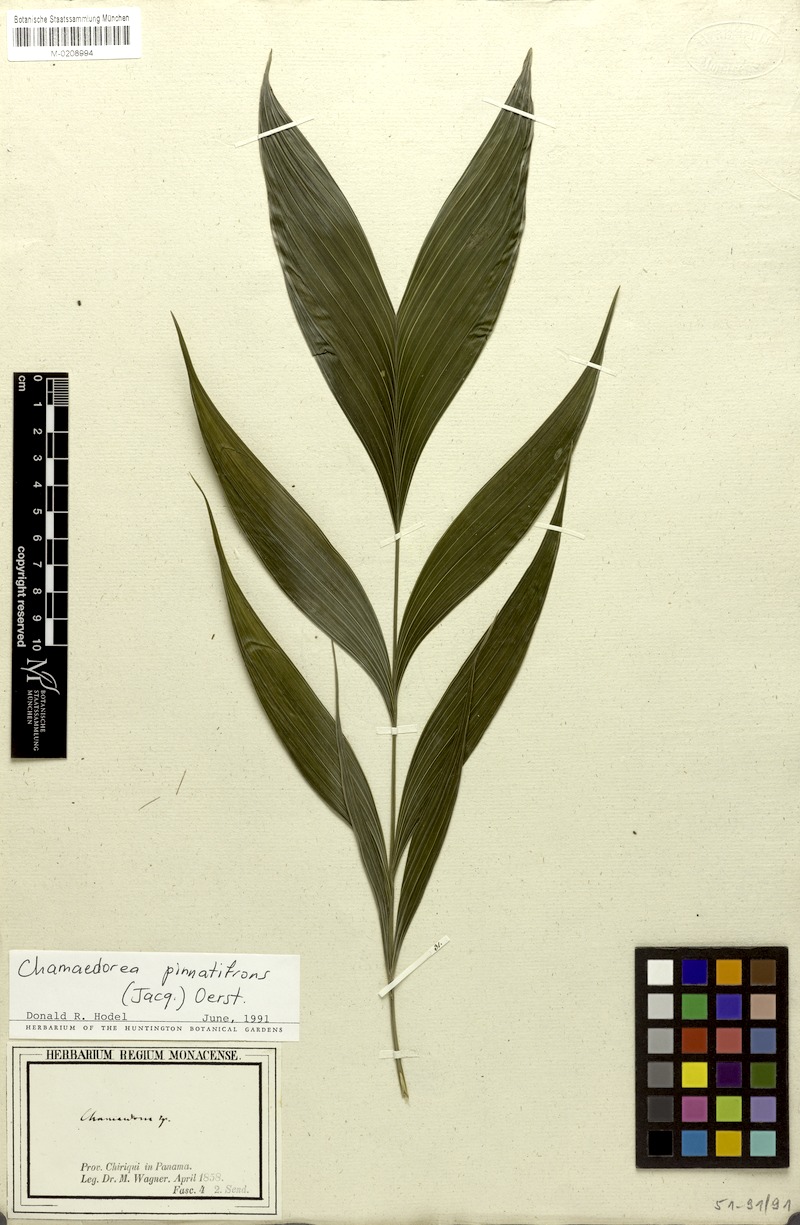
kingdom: Plantae
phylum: Tracheophyta
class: Liliopsida
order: Arecales
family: Arecaceae
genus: Chamaedorea
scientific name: Chamaedorea pinnatifrons
